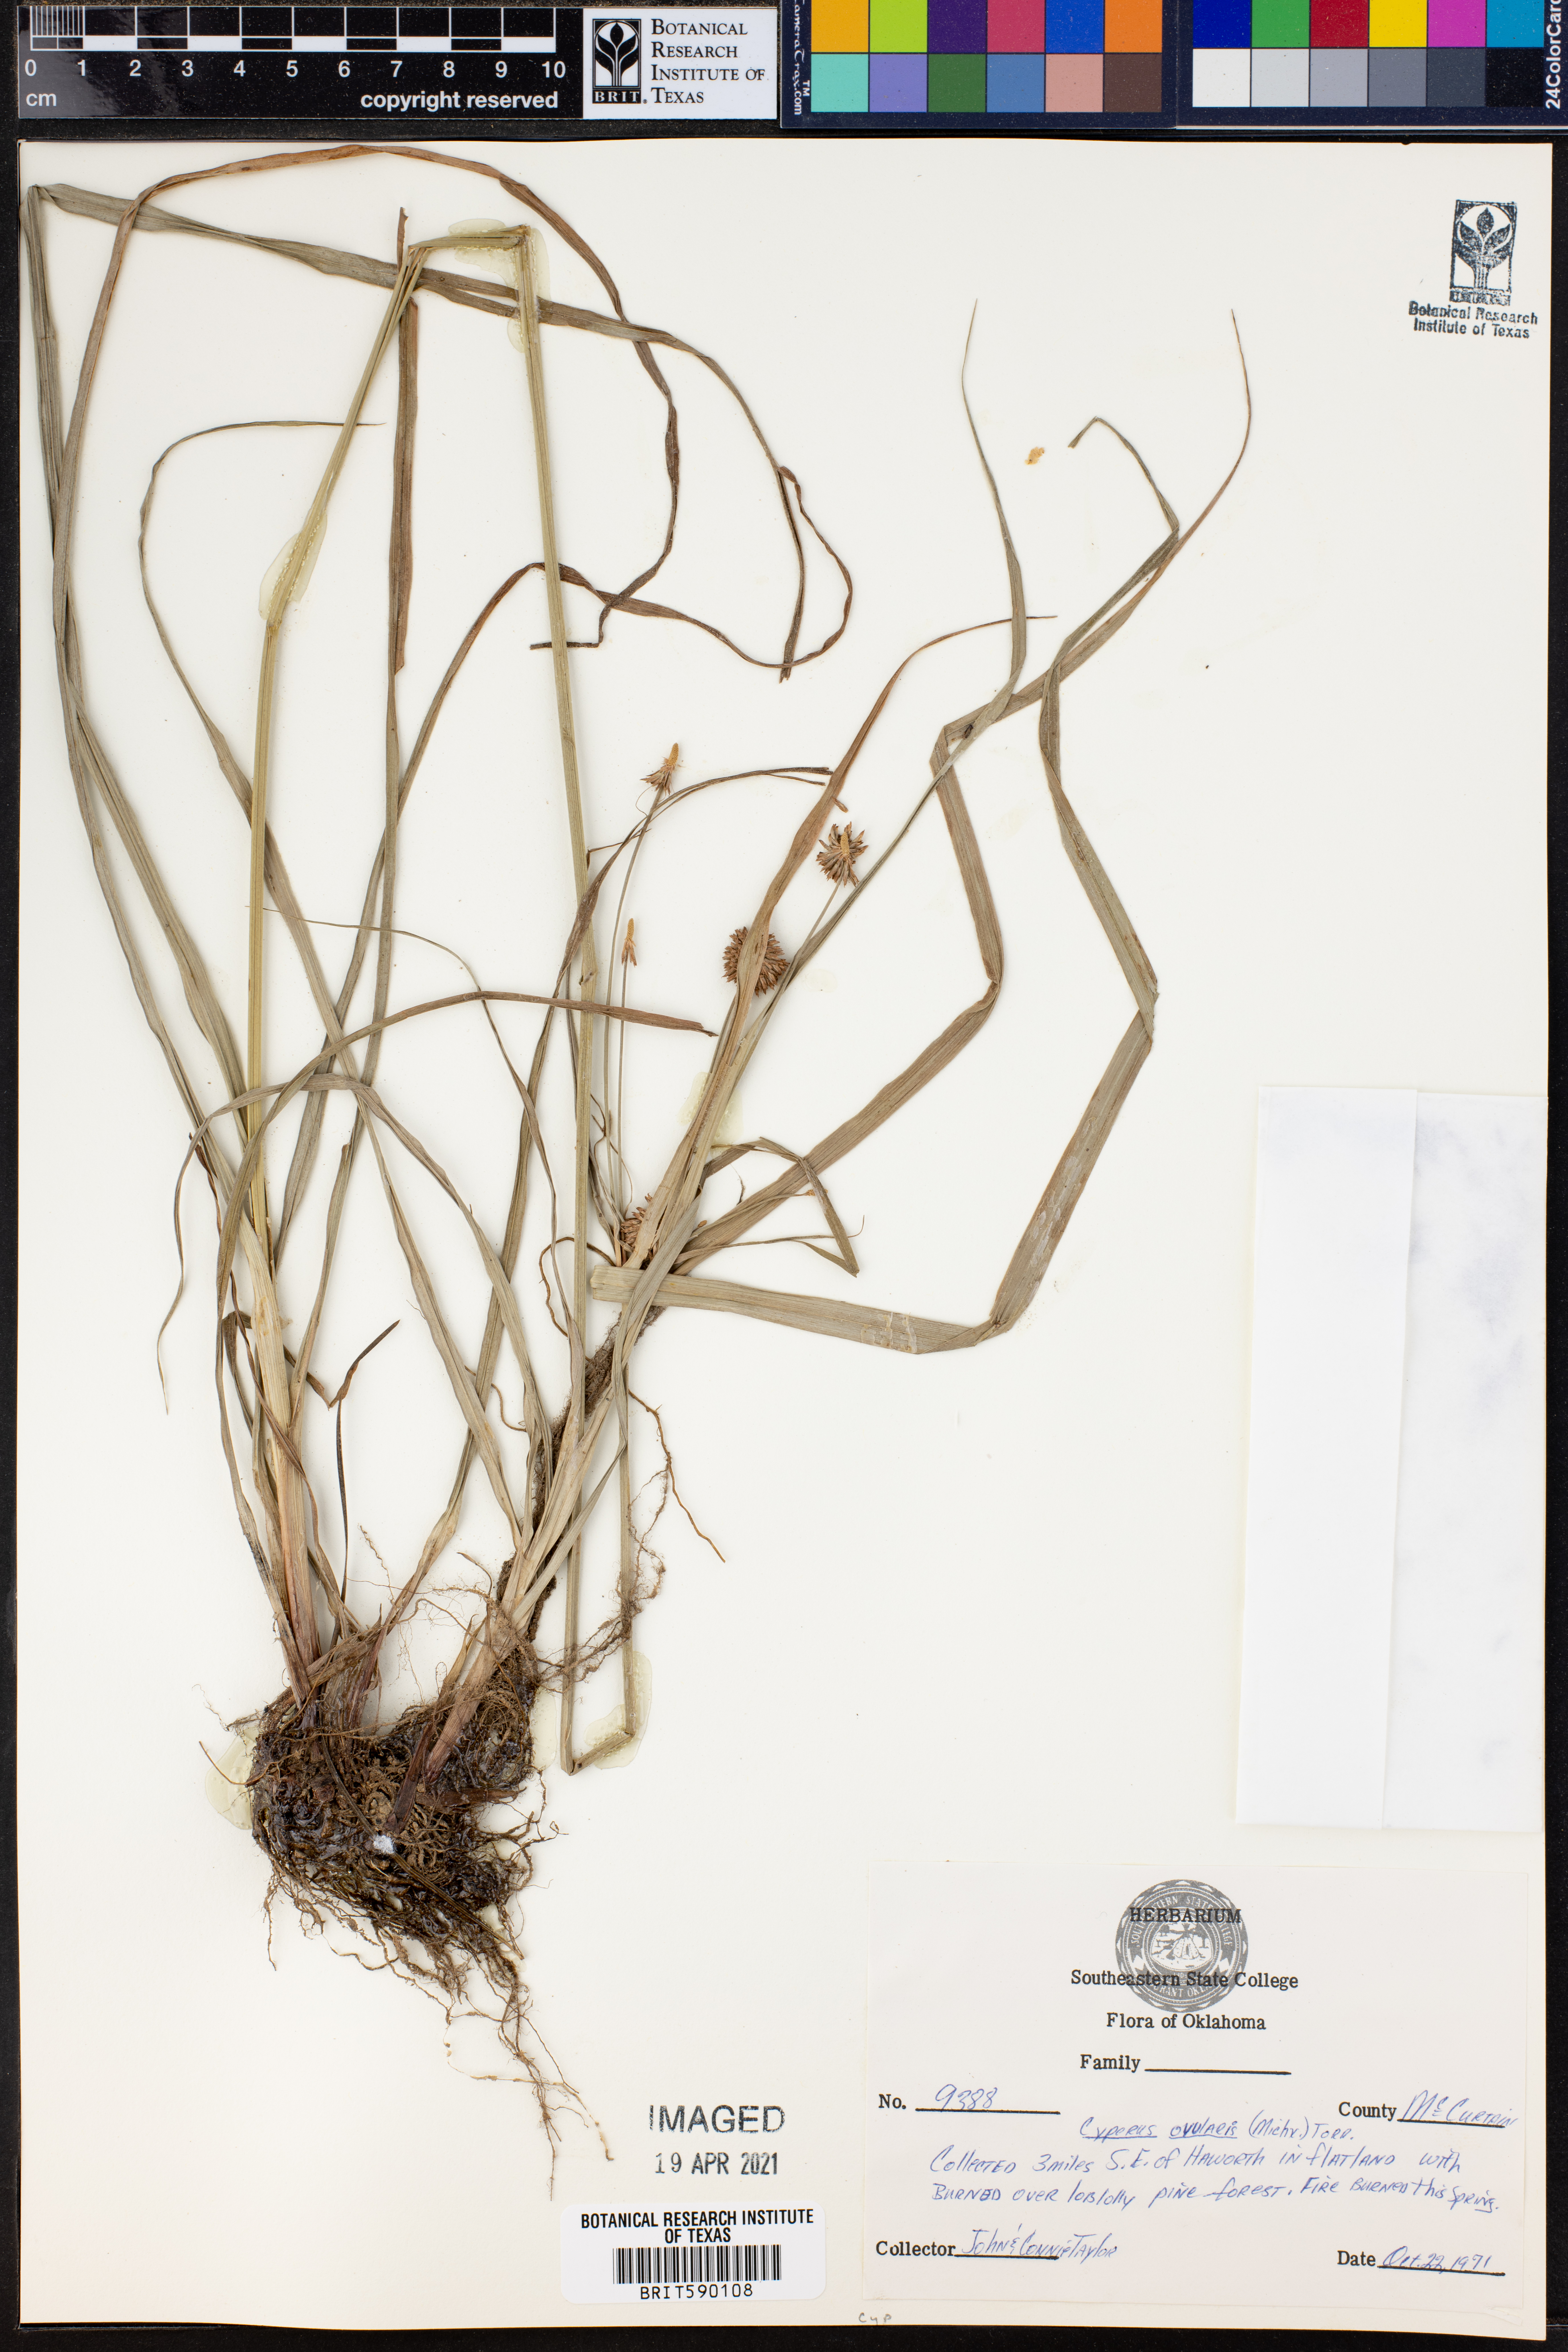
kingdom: Plantae
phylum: Tracheophyta
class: Liliopsida
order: Poales
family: Cyperaceae
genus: Cyperus
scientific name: Cyperus echinatus
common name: Teasel sedge
